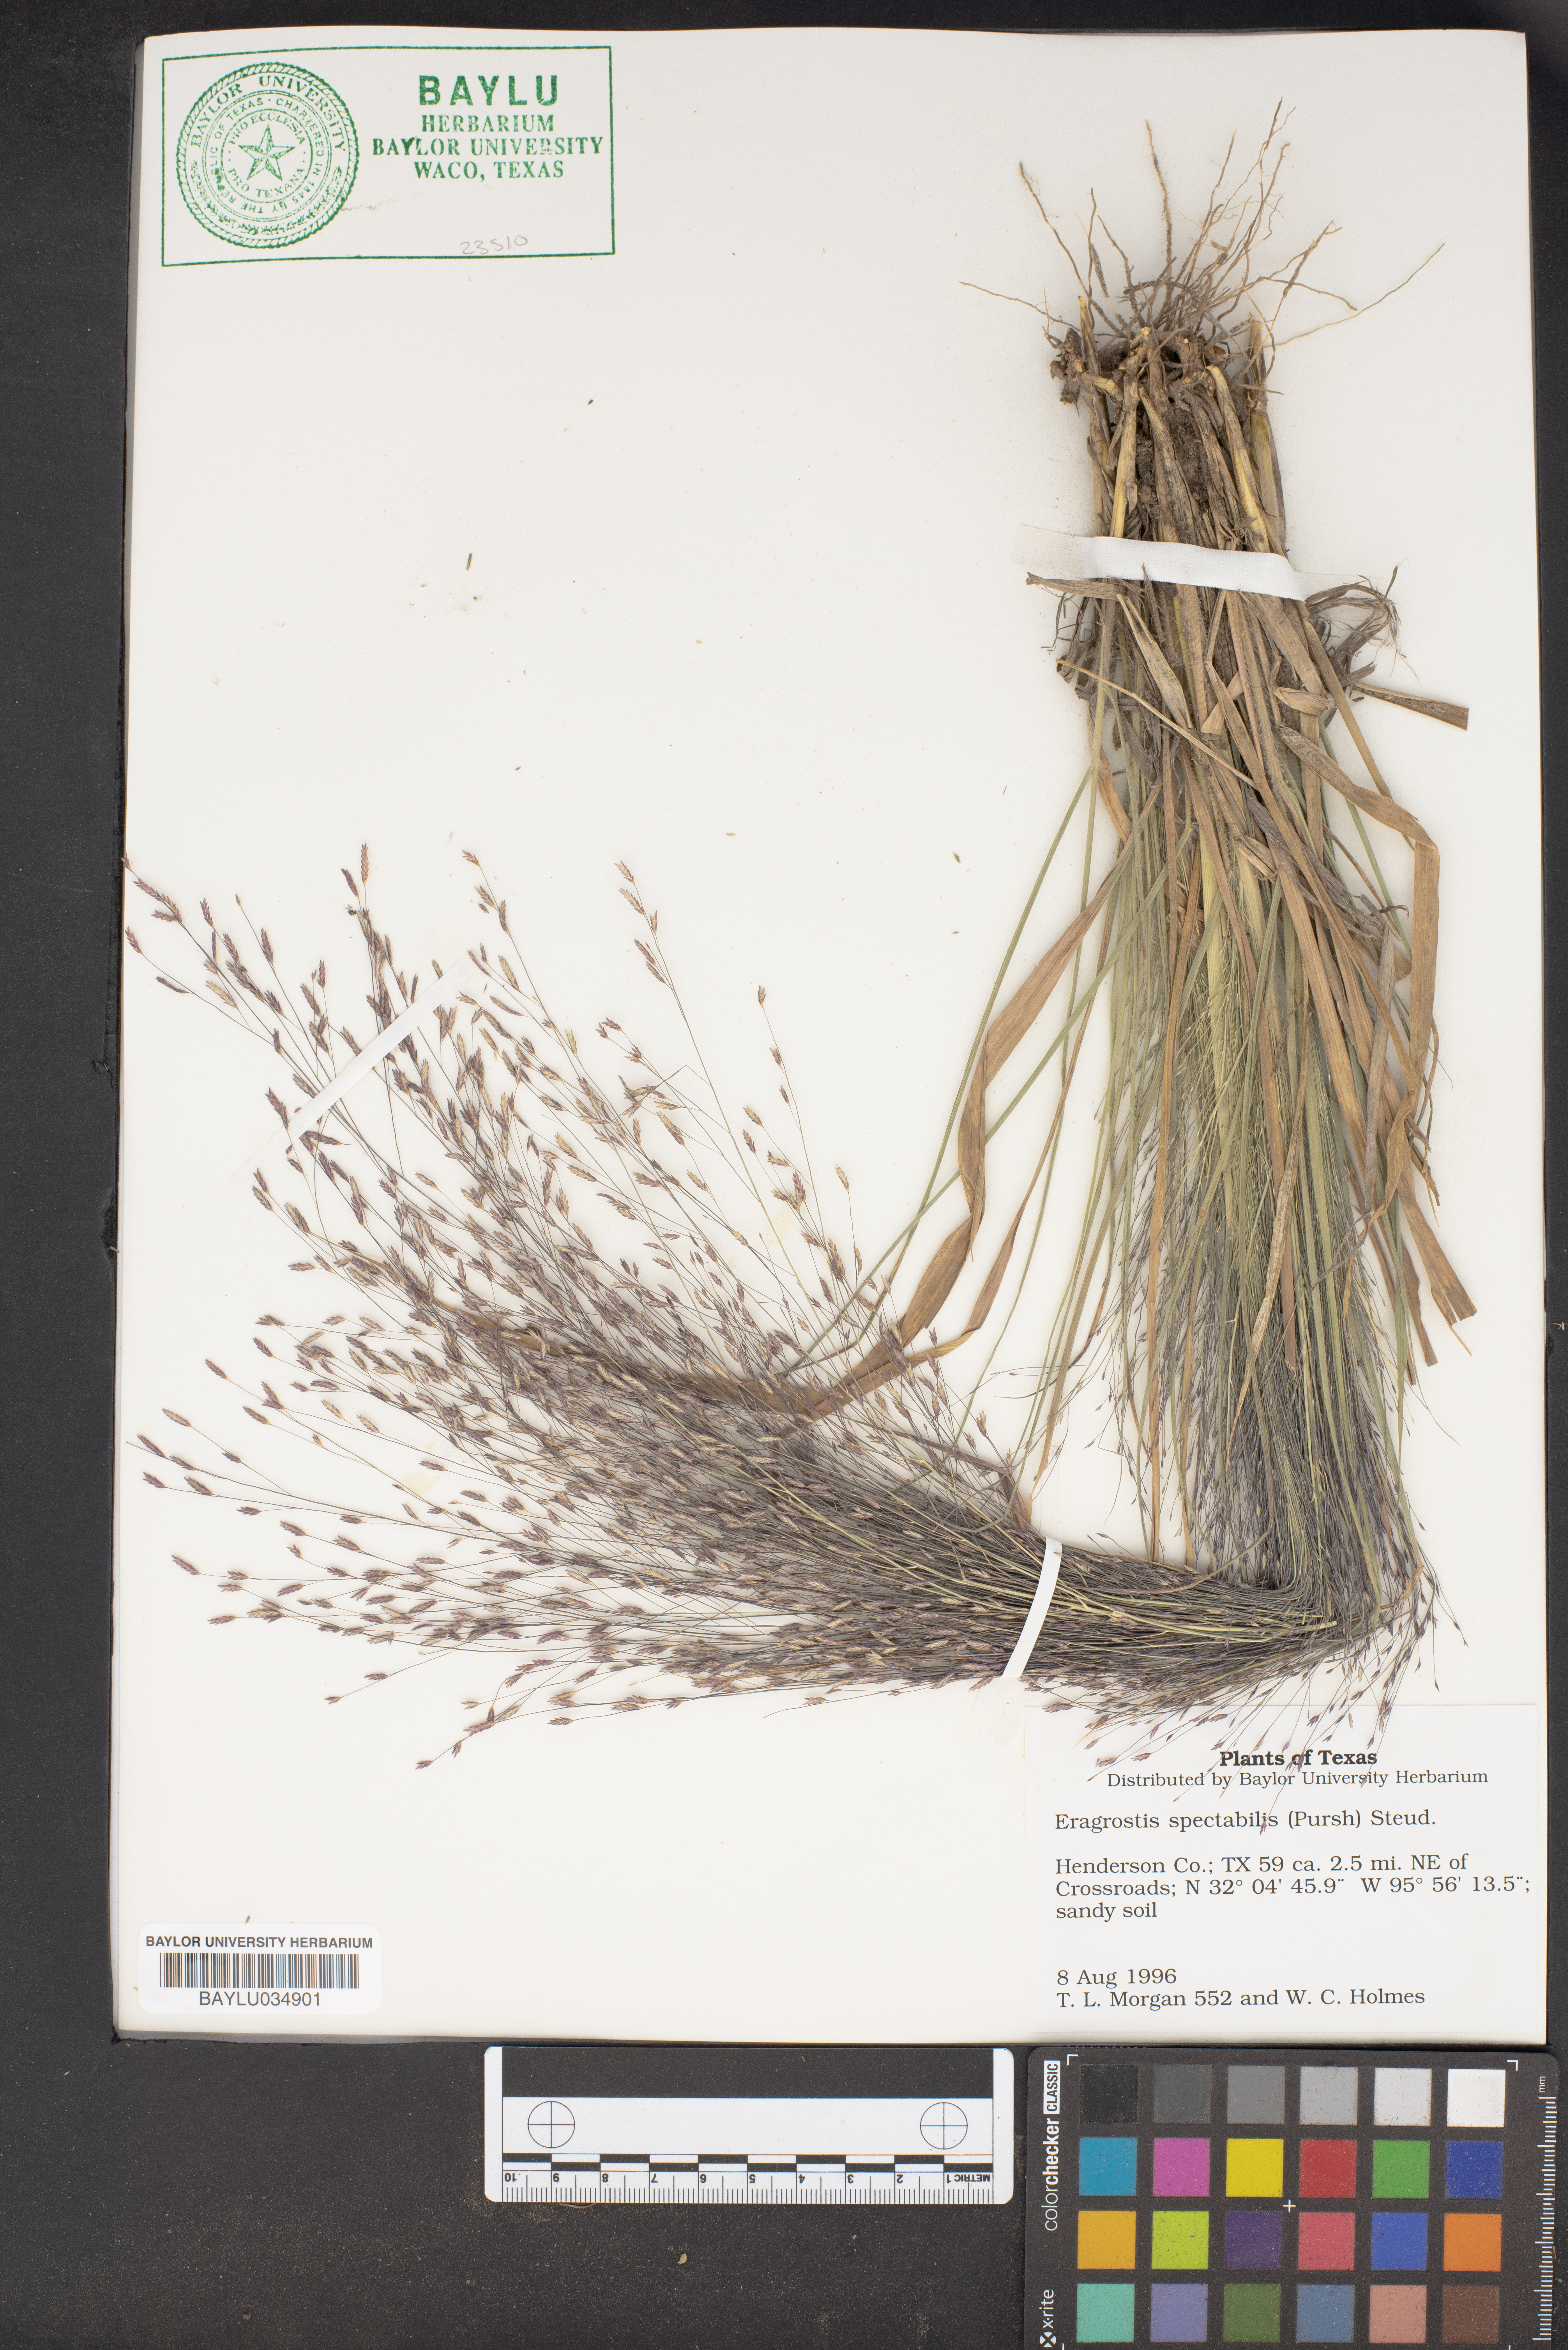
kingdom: Plantae
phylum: Tracheophyta
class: Liliopsida
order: Poales
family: Poaceae
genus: Eragrostis
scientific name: Eragrostis spectabilis
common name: Petticoat-climber
